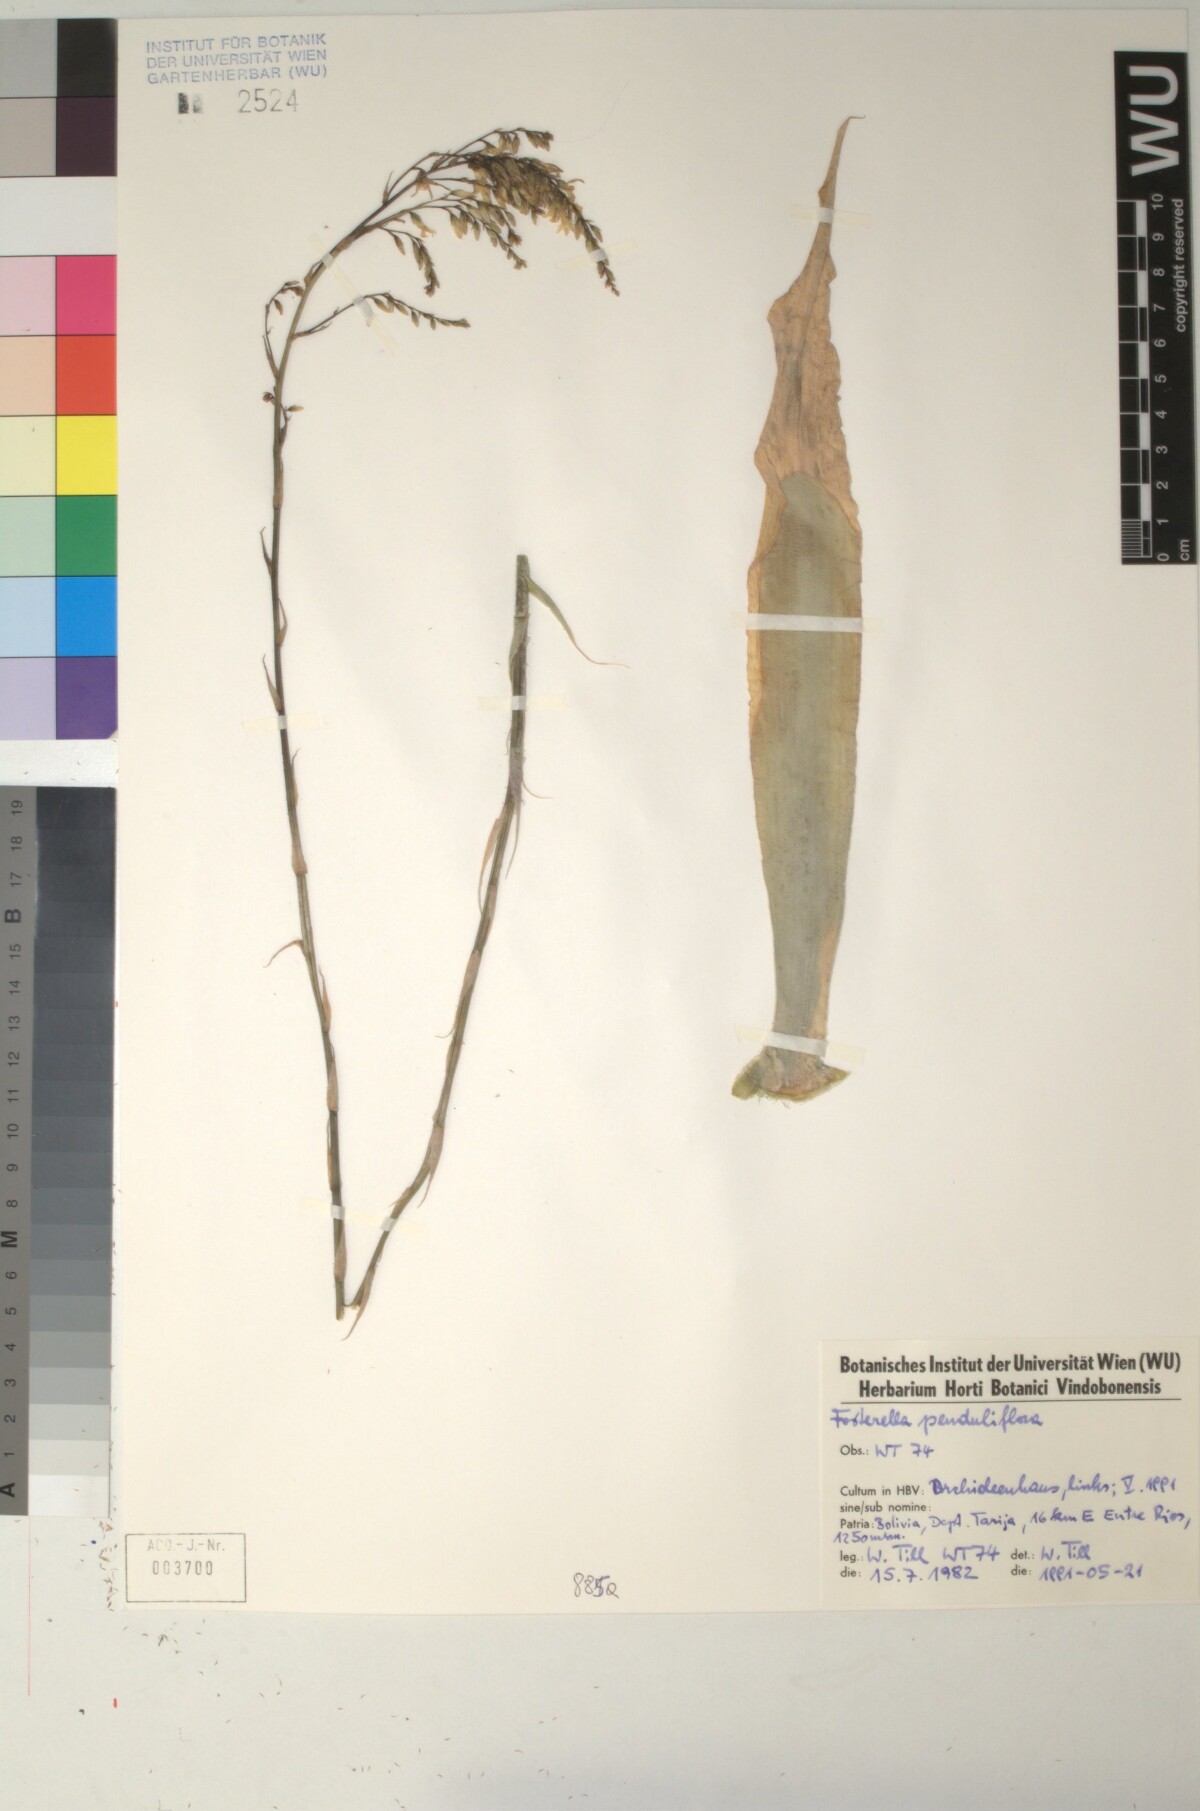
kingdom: Plantae
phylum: Tracheophyta
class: Liliopsida
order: Poales
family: Bromeliaceae
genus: Fosterella
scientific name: Fosterella penduliflora
